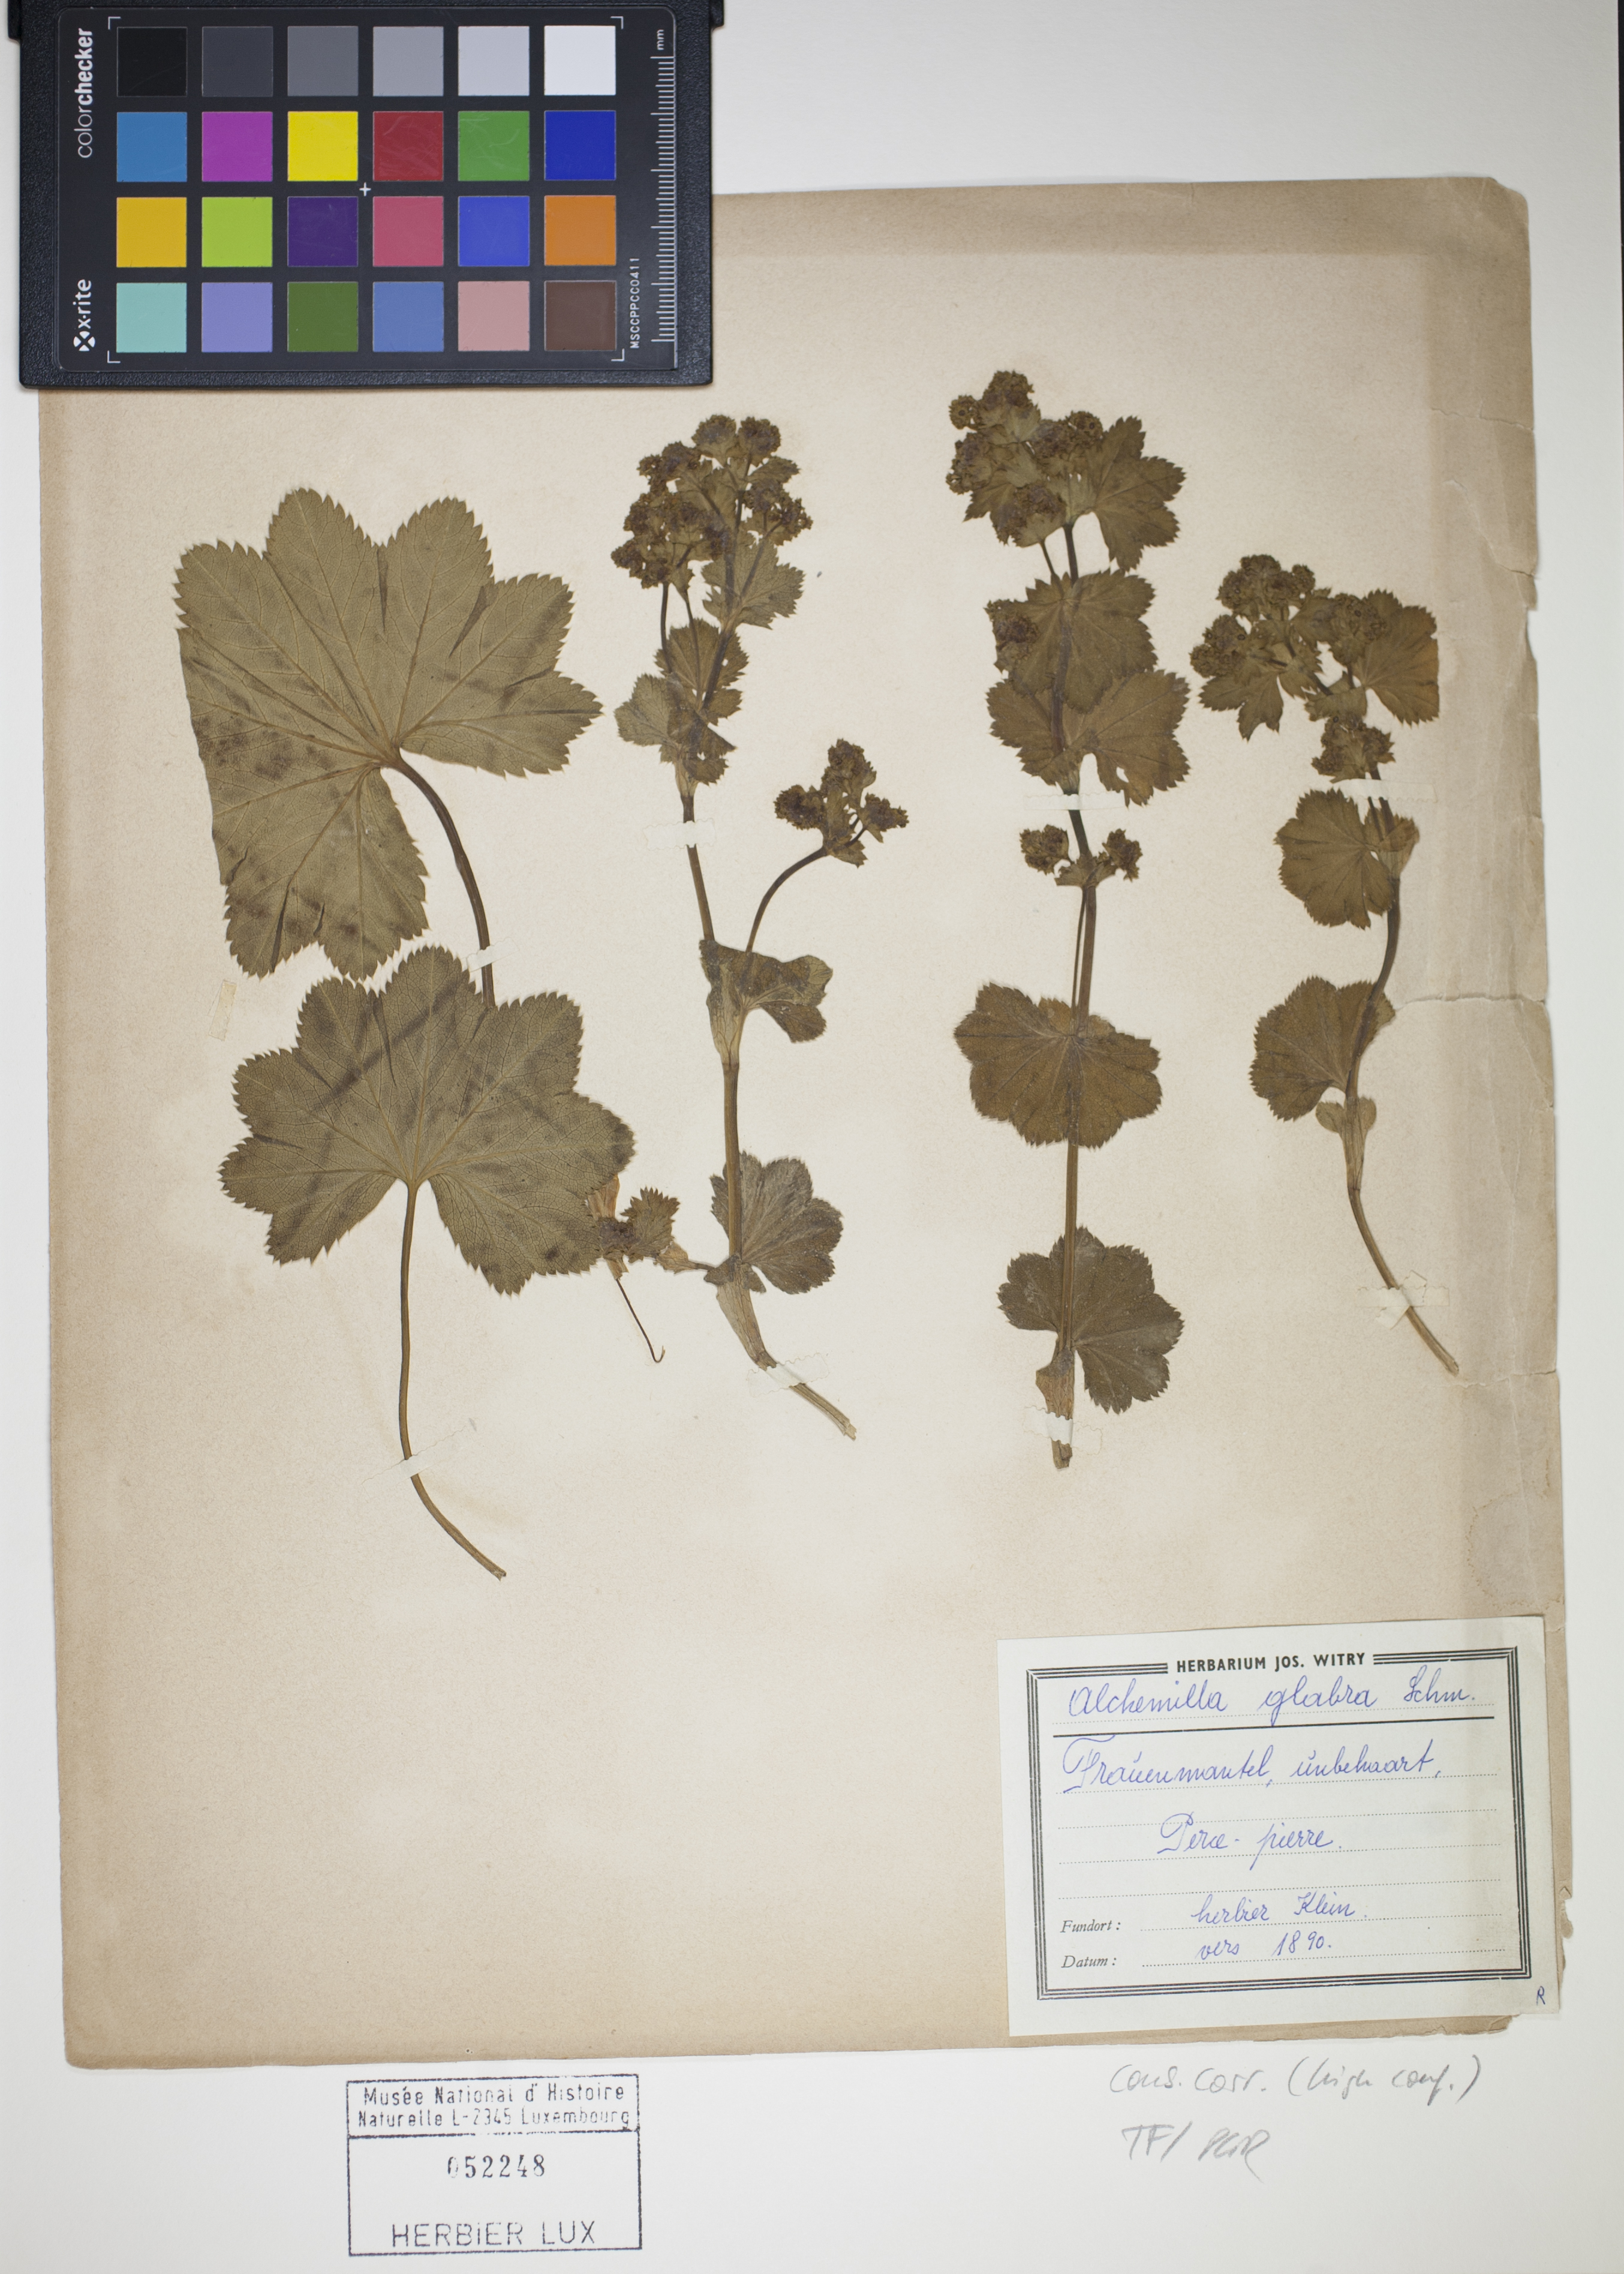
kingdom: Plantae
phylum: Tracheophyta
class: Magnoliopsida
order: Rosales
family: Rosaceae
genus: Alchemilla
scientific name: Alchemilla glabra
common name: Smooth lady's-mantle
